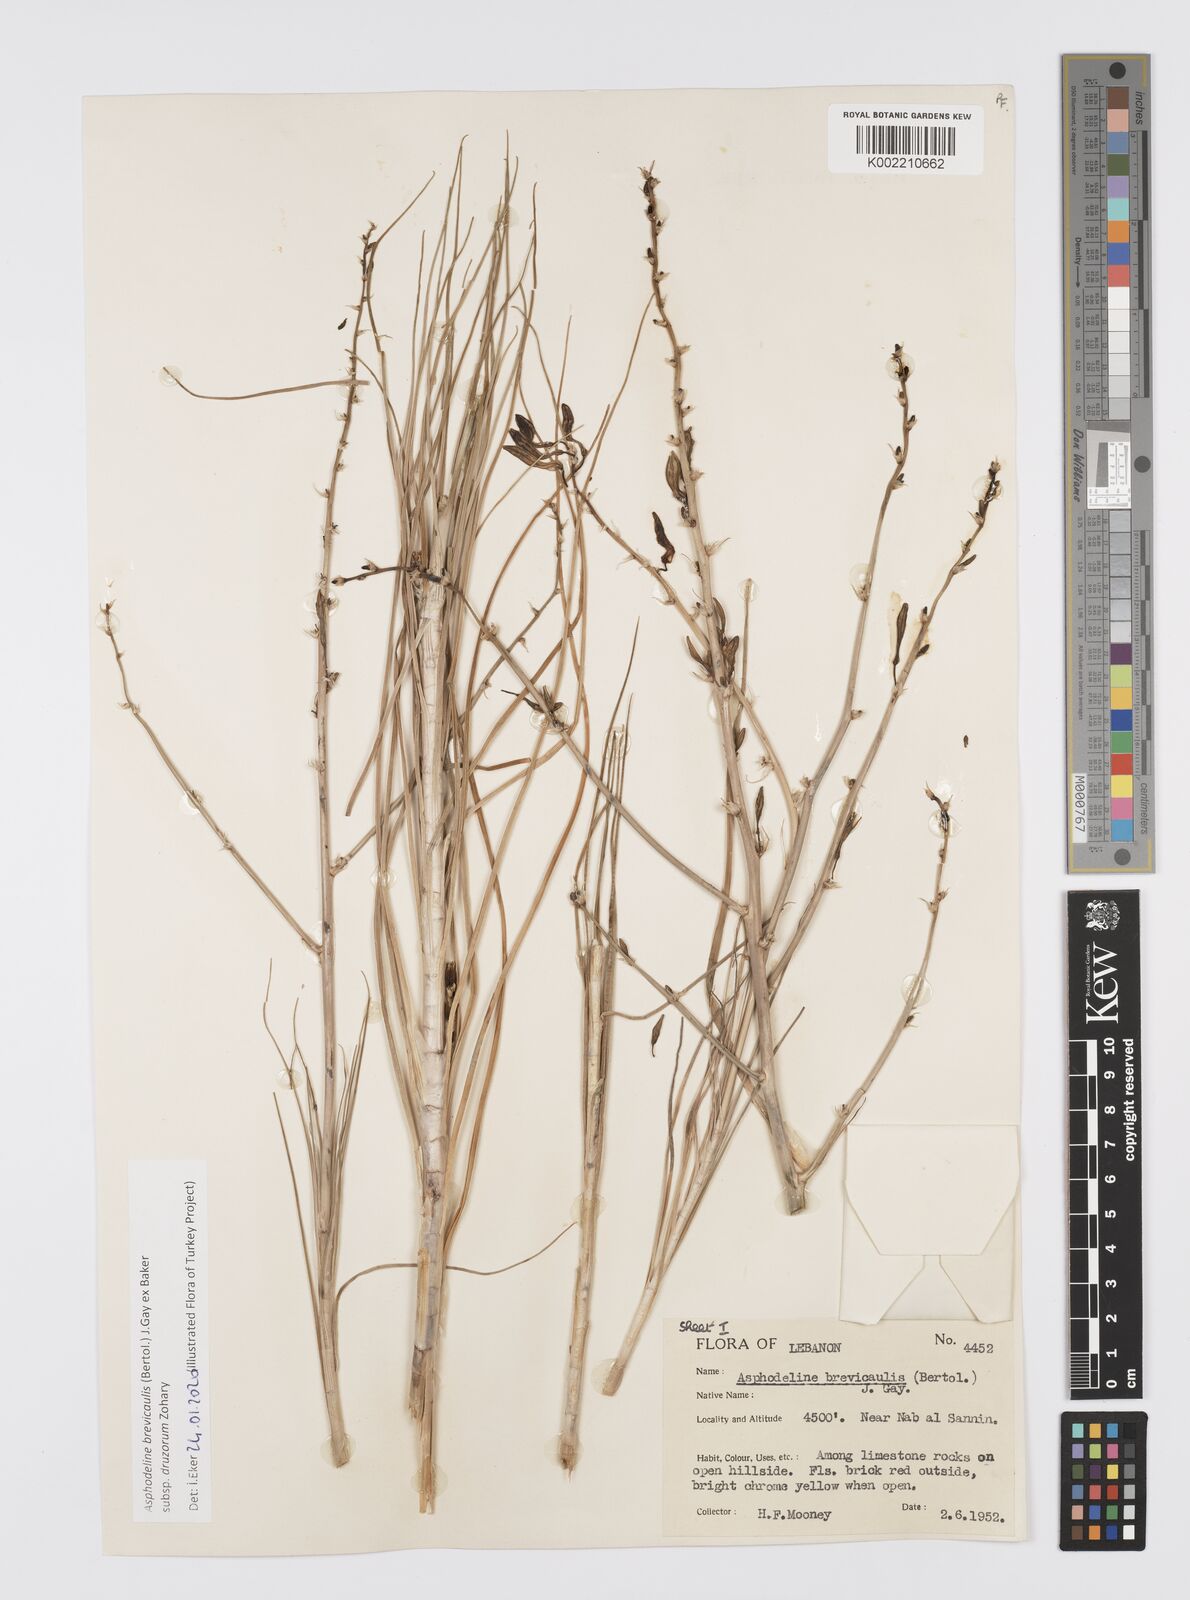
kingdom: Plantae
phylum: Tracheophyta
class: Liliopsida
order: Asparagales
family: Asphodelaceae
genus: Asphodeline
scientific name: Asphodeline brevicaulis
